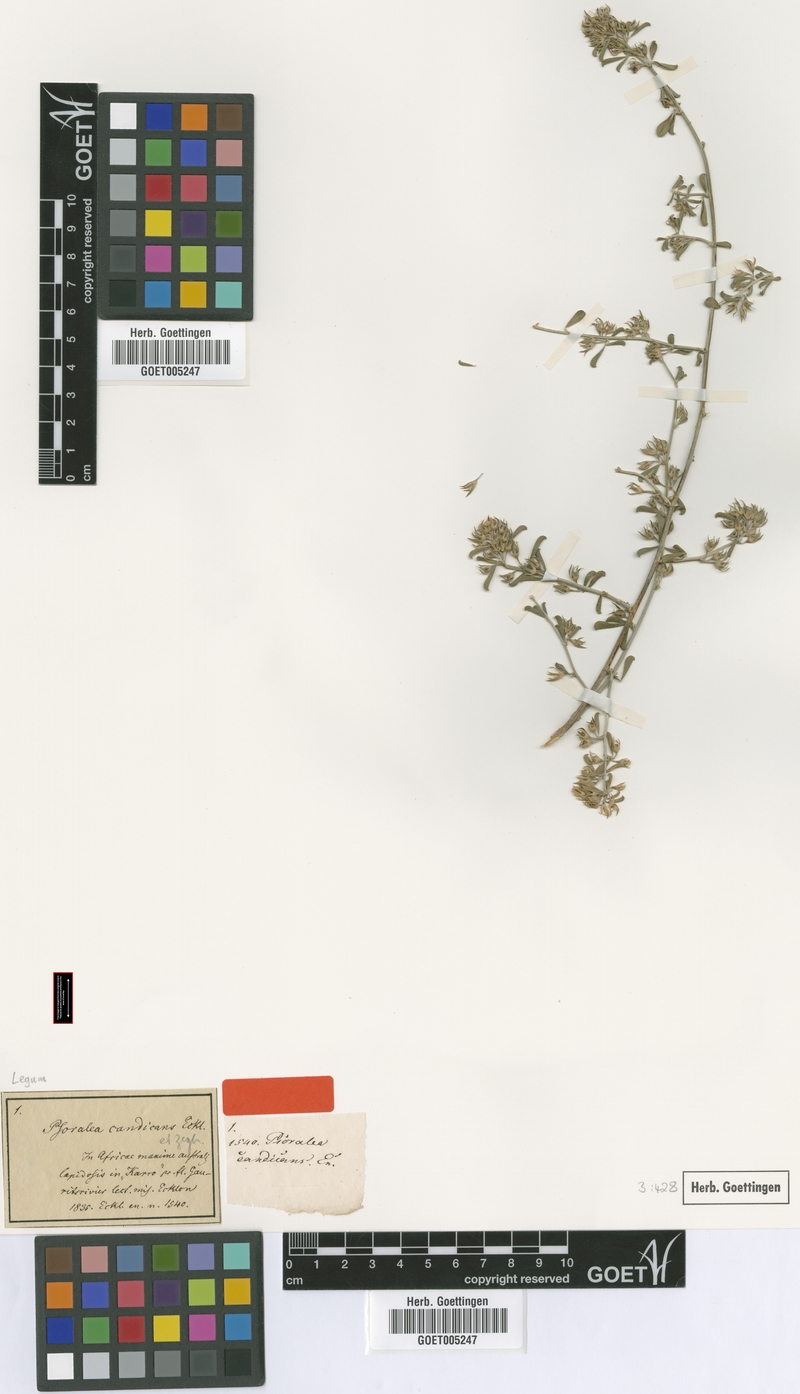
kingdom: Plantae
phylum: Tracheophyta
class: Magnoliopsida
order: Fabales
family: Fabaceae
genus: Psoralea
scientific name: Psoralea candicans
